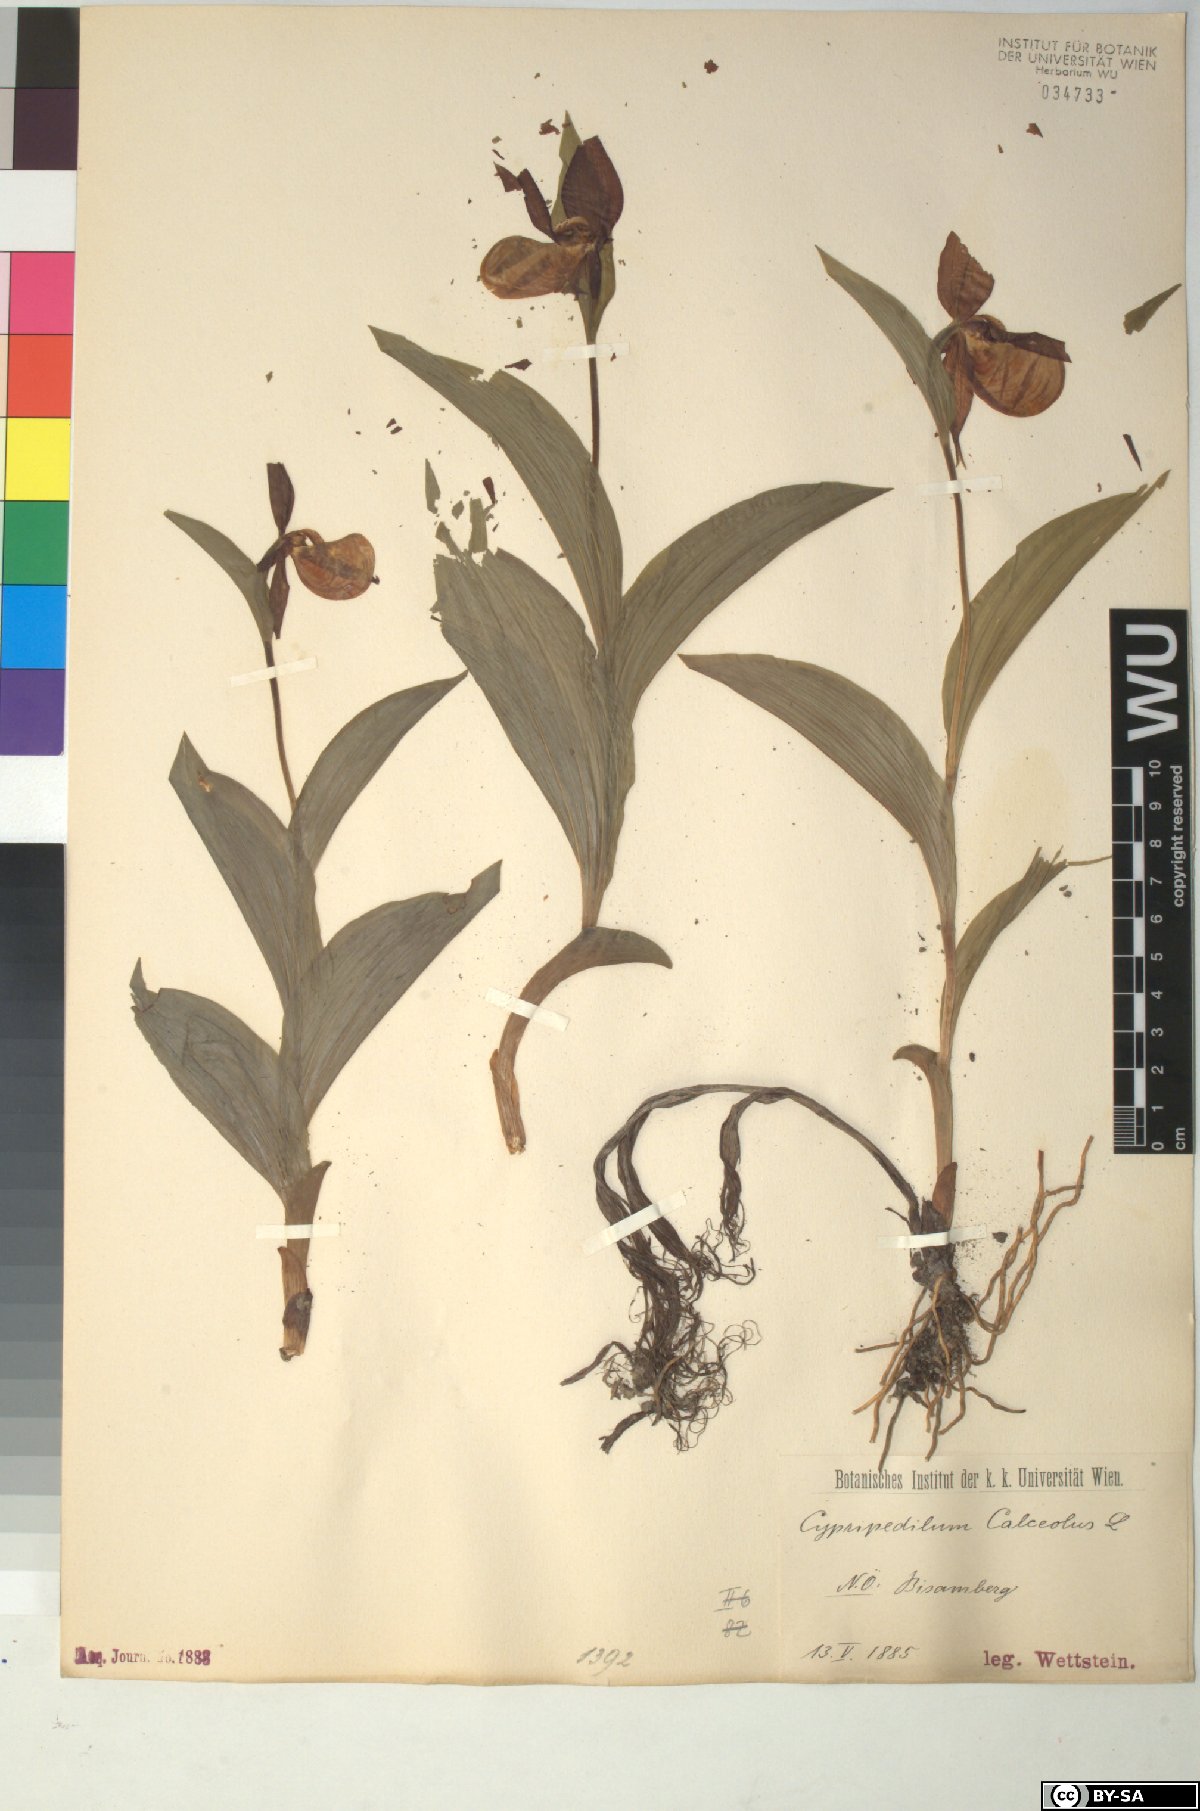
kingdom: Plantae
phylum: Tracheophyta
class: Liliopsida
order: Asparagales
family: Orchidaceae
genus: Cypripedium
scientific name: Cypripedium calceolus
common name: Lady's-slipper
